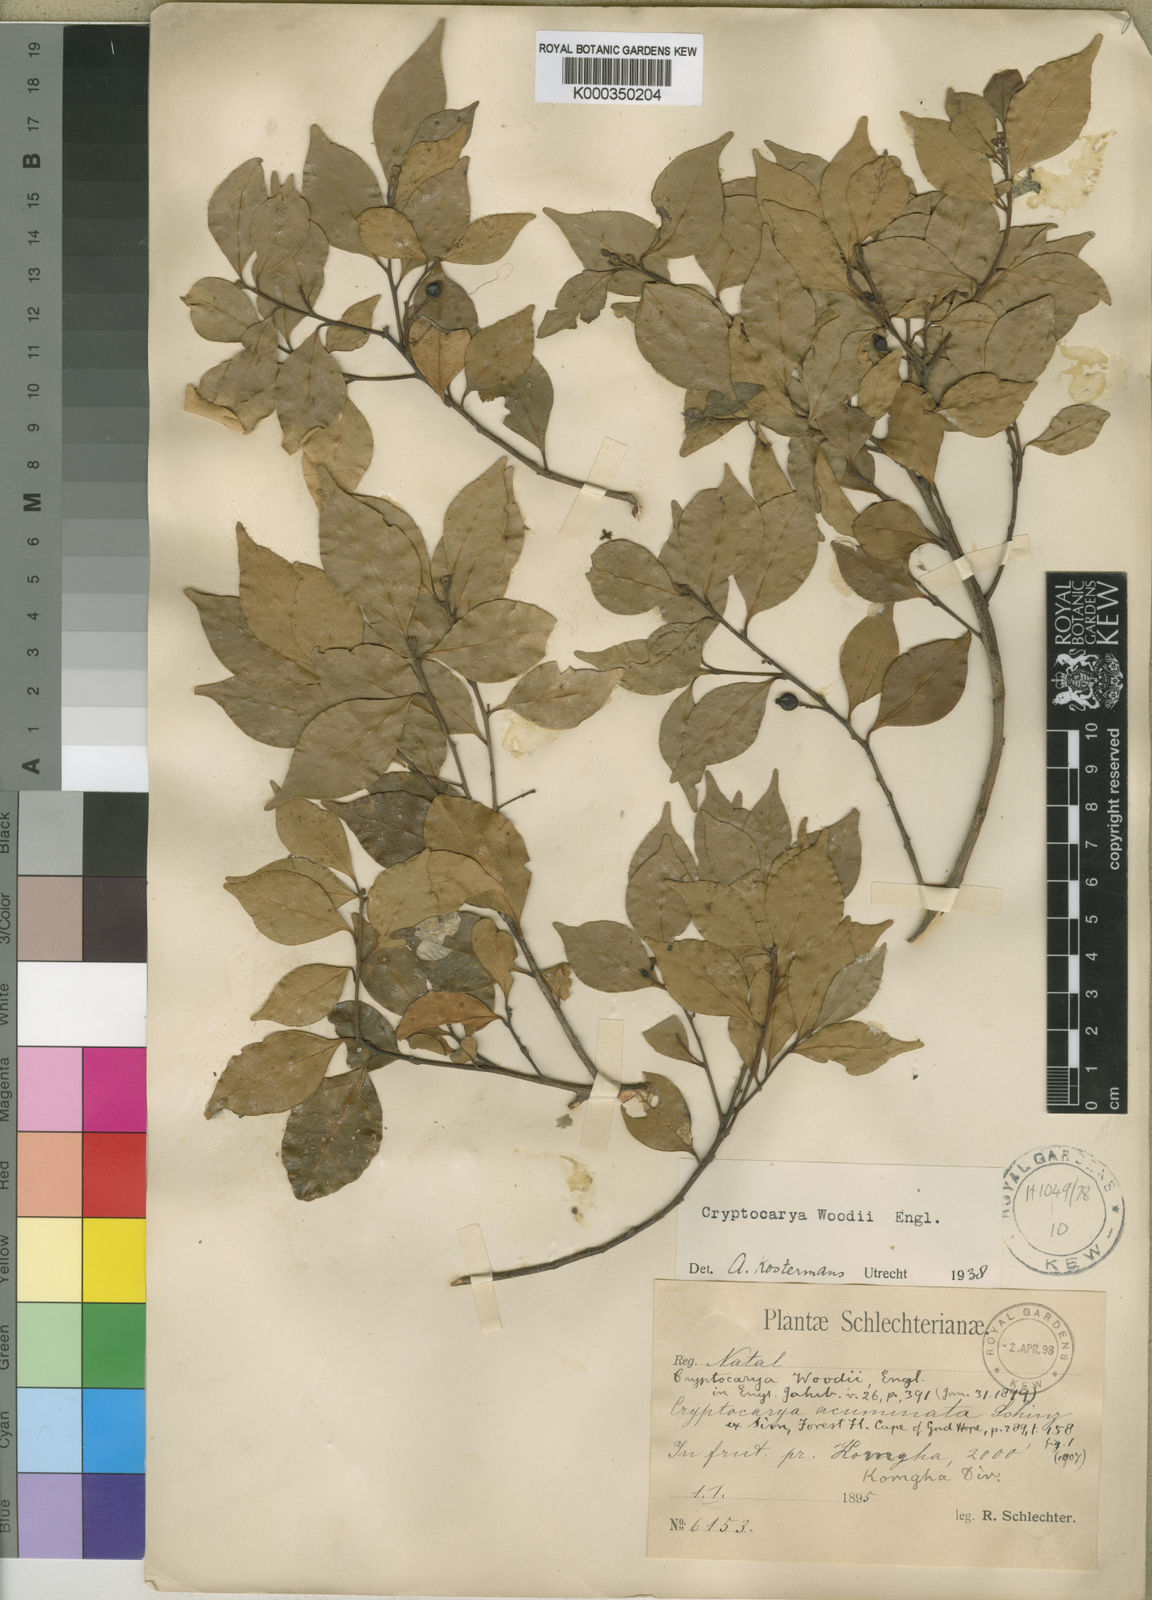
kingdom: Plantae
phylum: Tracheophyta
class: Magnoliopsida
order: Laurales
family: Lauraceae
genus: Cryptocarya
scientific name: Cryptocarya woodii
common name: Bastard camphor tree
